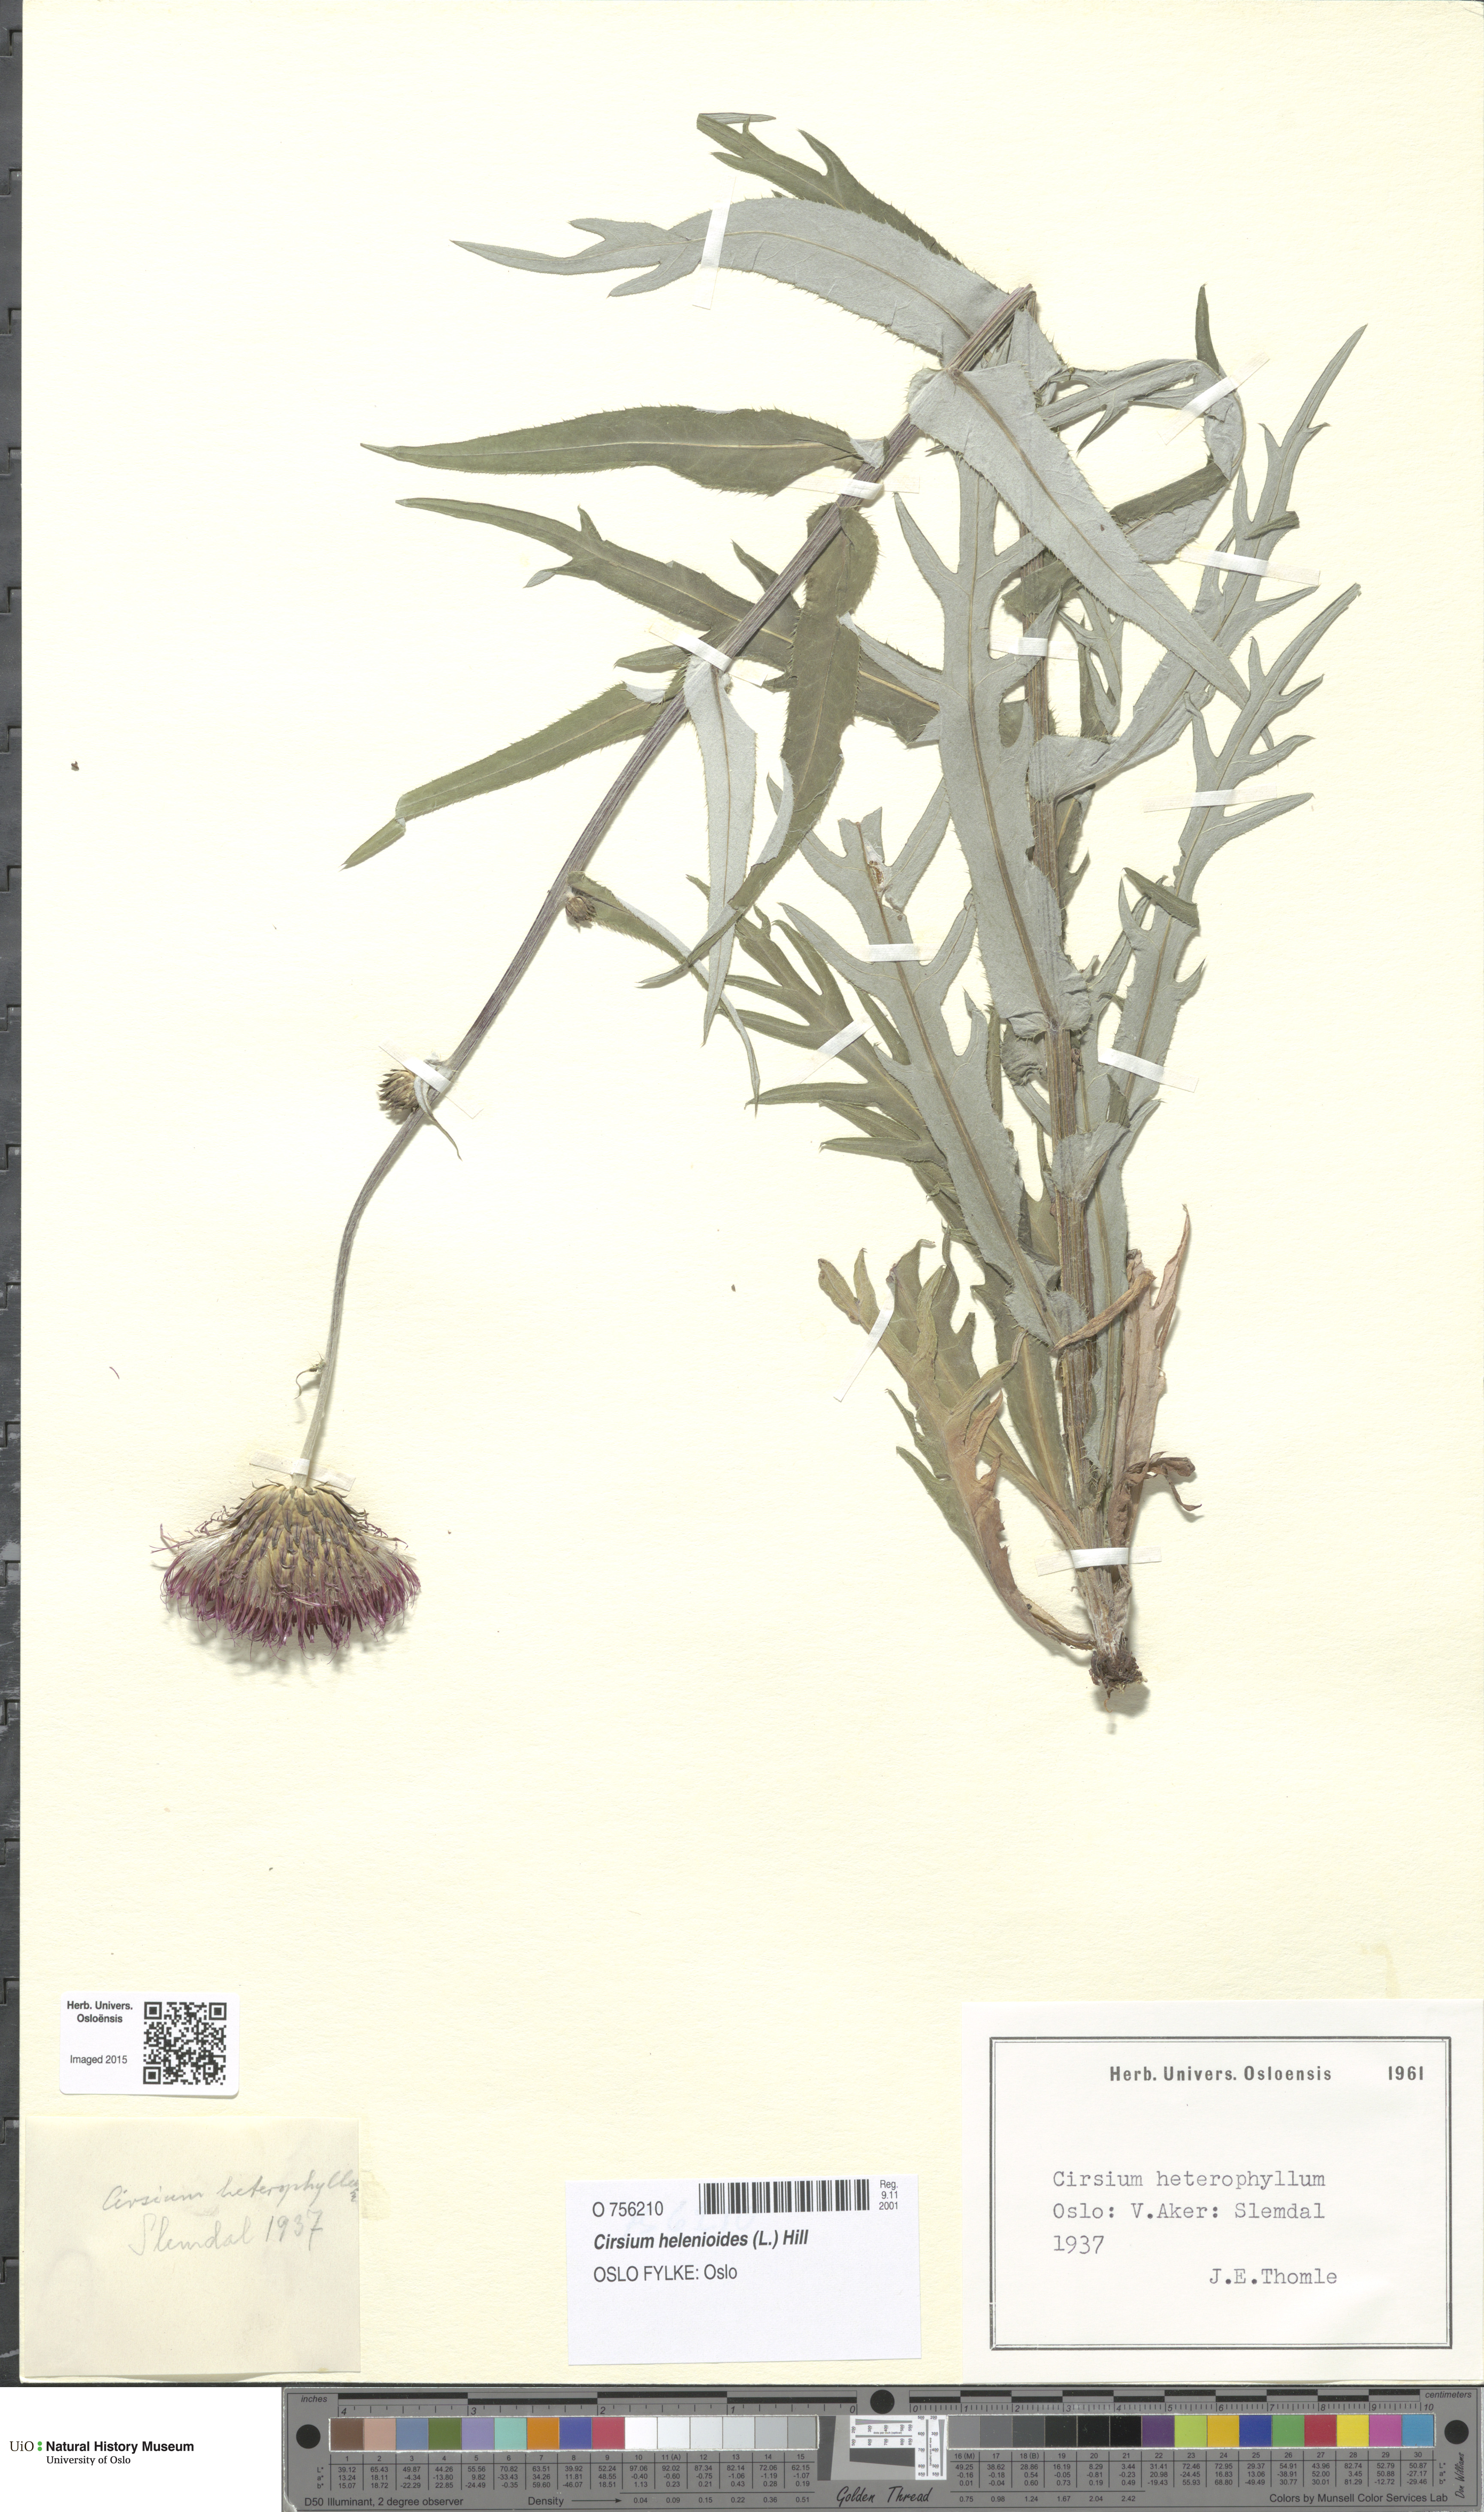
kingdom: Plantae
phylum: Tracheophyta
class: Magnoliopsida
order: Asterales
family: Asteraceae
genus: Cirsium
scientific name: Cirsium heterophyllum
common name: Melancholy thistle
